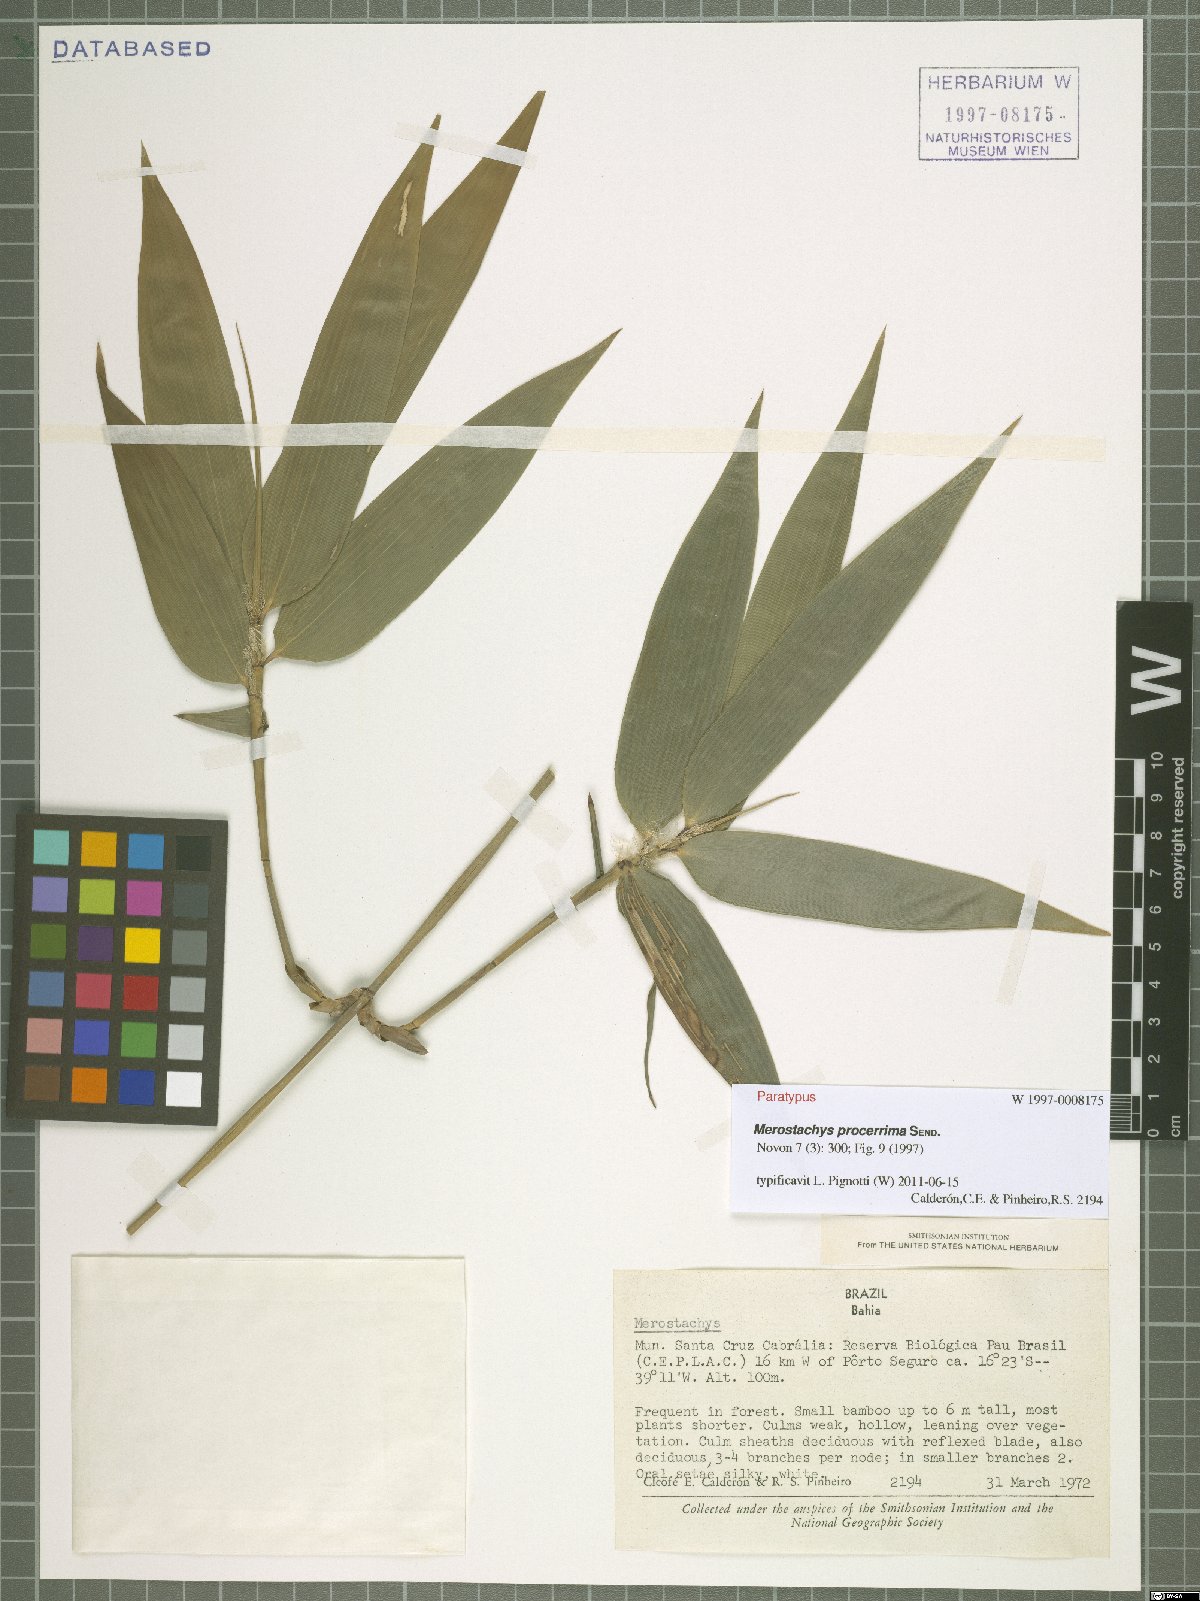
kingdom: Plantae
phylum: Tracheophyta
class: Liliopsida
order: Poales
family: Poaceae
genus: Merostachys
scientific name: Merostachys procerrima
